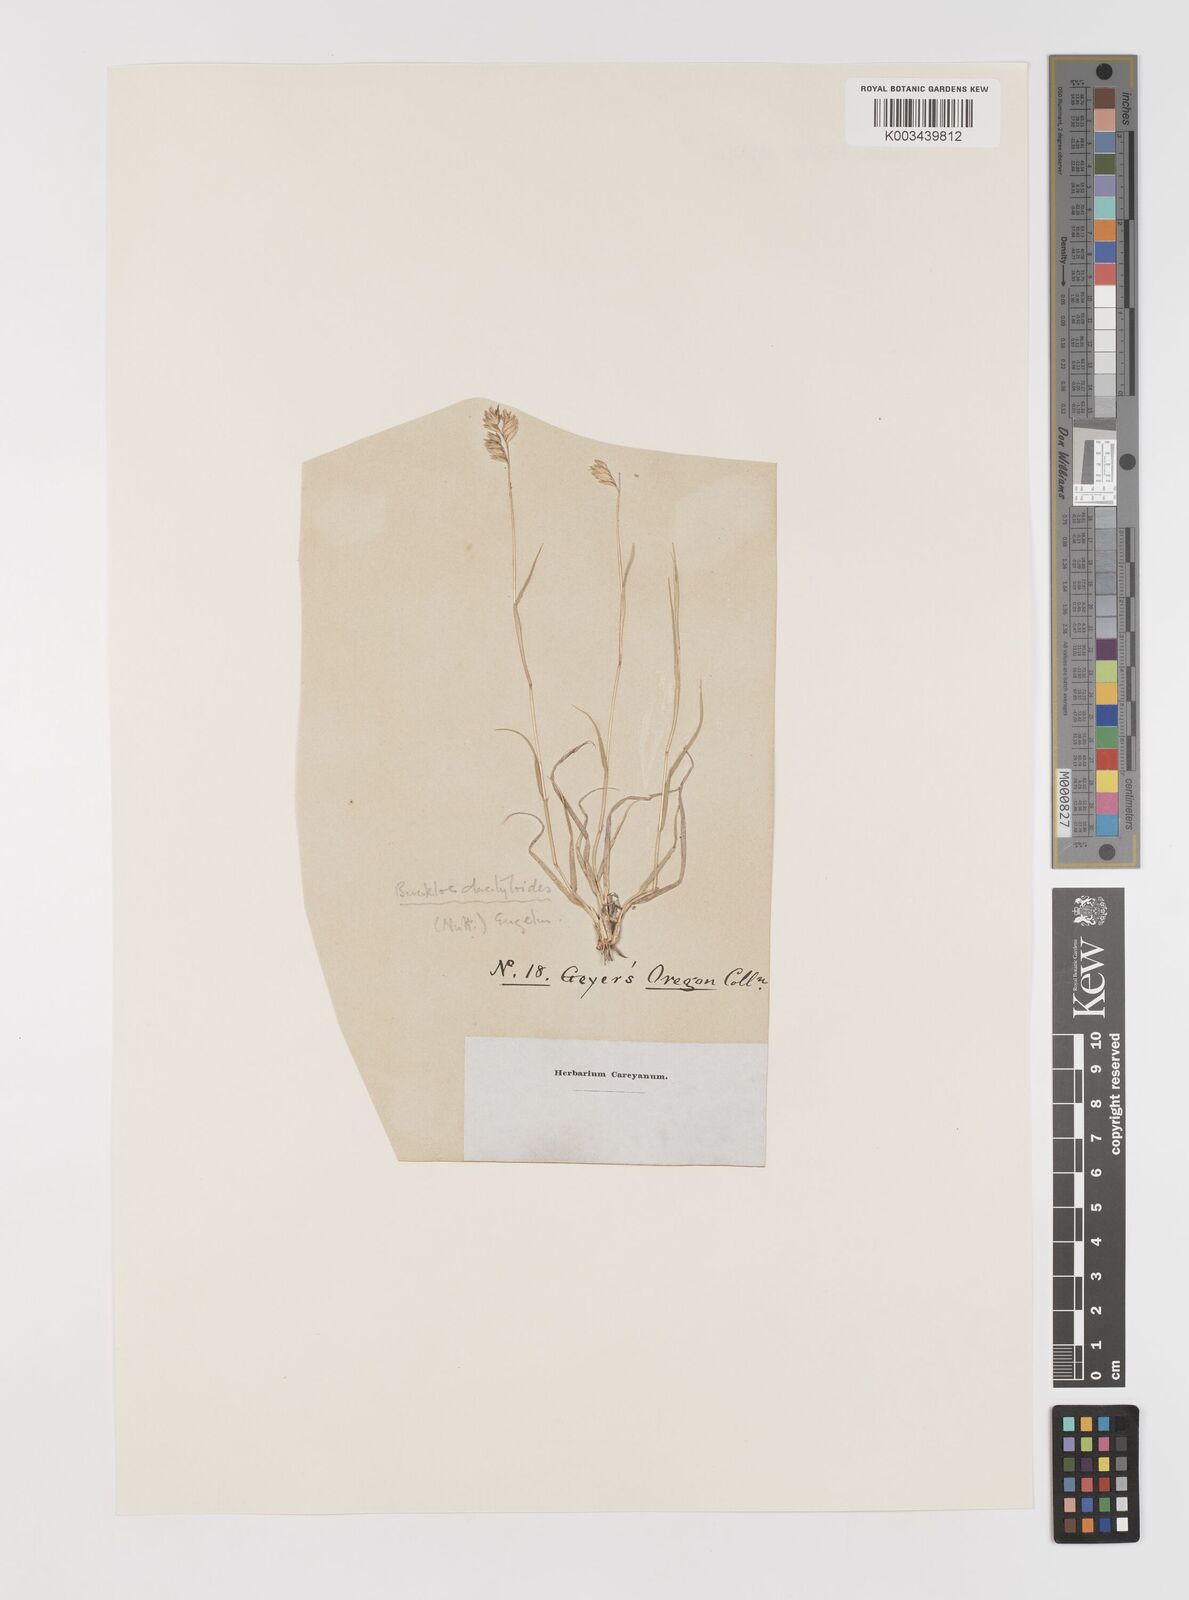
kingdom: Plantae
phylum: Tracheophyta
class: Liliopsida
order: Poales
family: Poaceae
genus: Bouteloua
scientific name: Bouteloua dactyloides
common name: Buffalo grass
